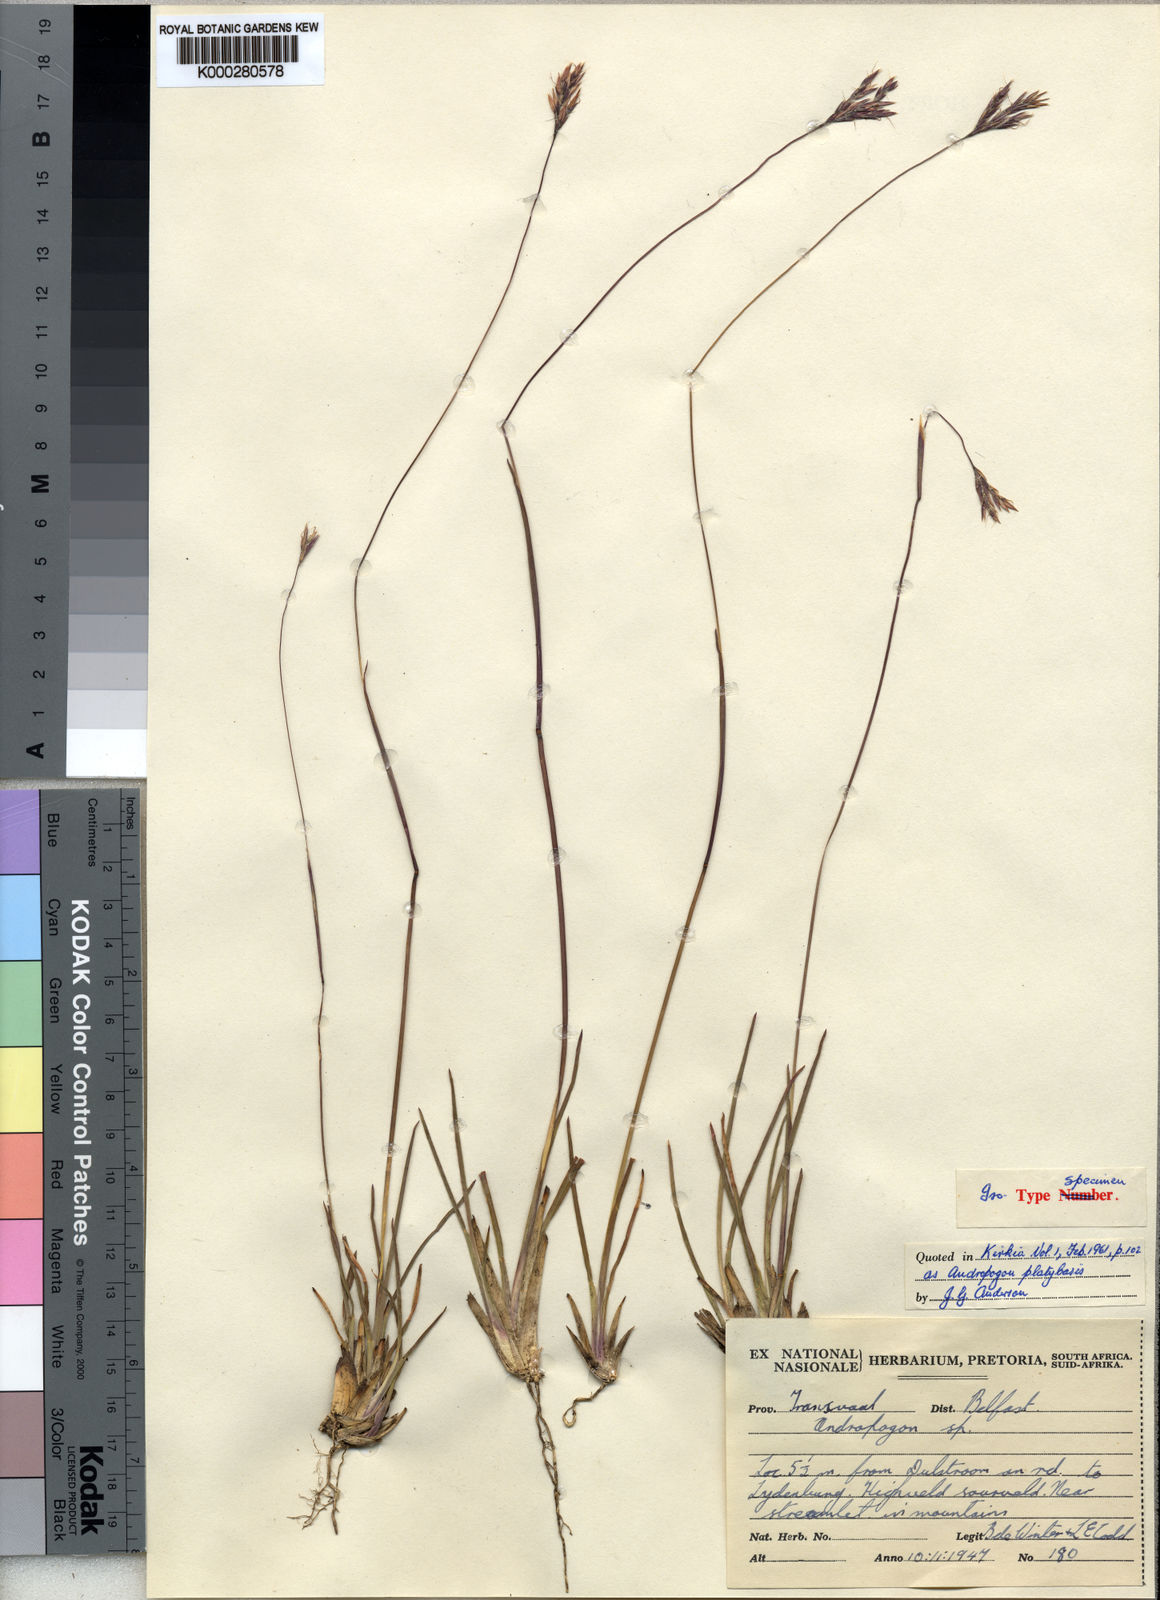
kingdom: Plantae
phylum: Tracheophyta
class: Liliopsida
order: Poales
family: Poaceae
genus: Andropogon
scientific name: Andropogon mannii
